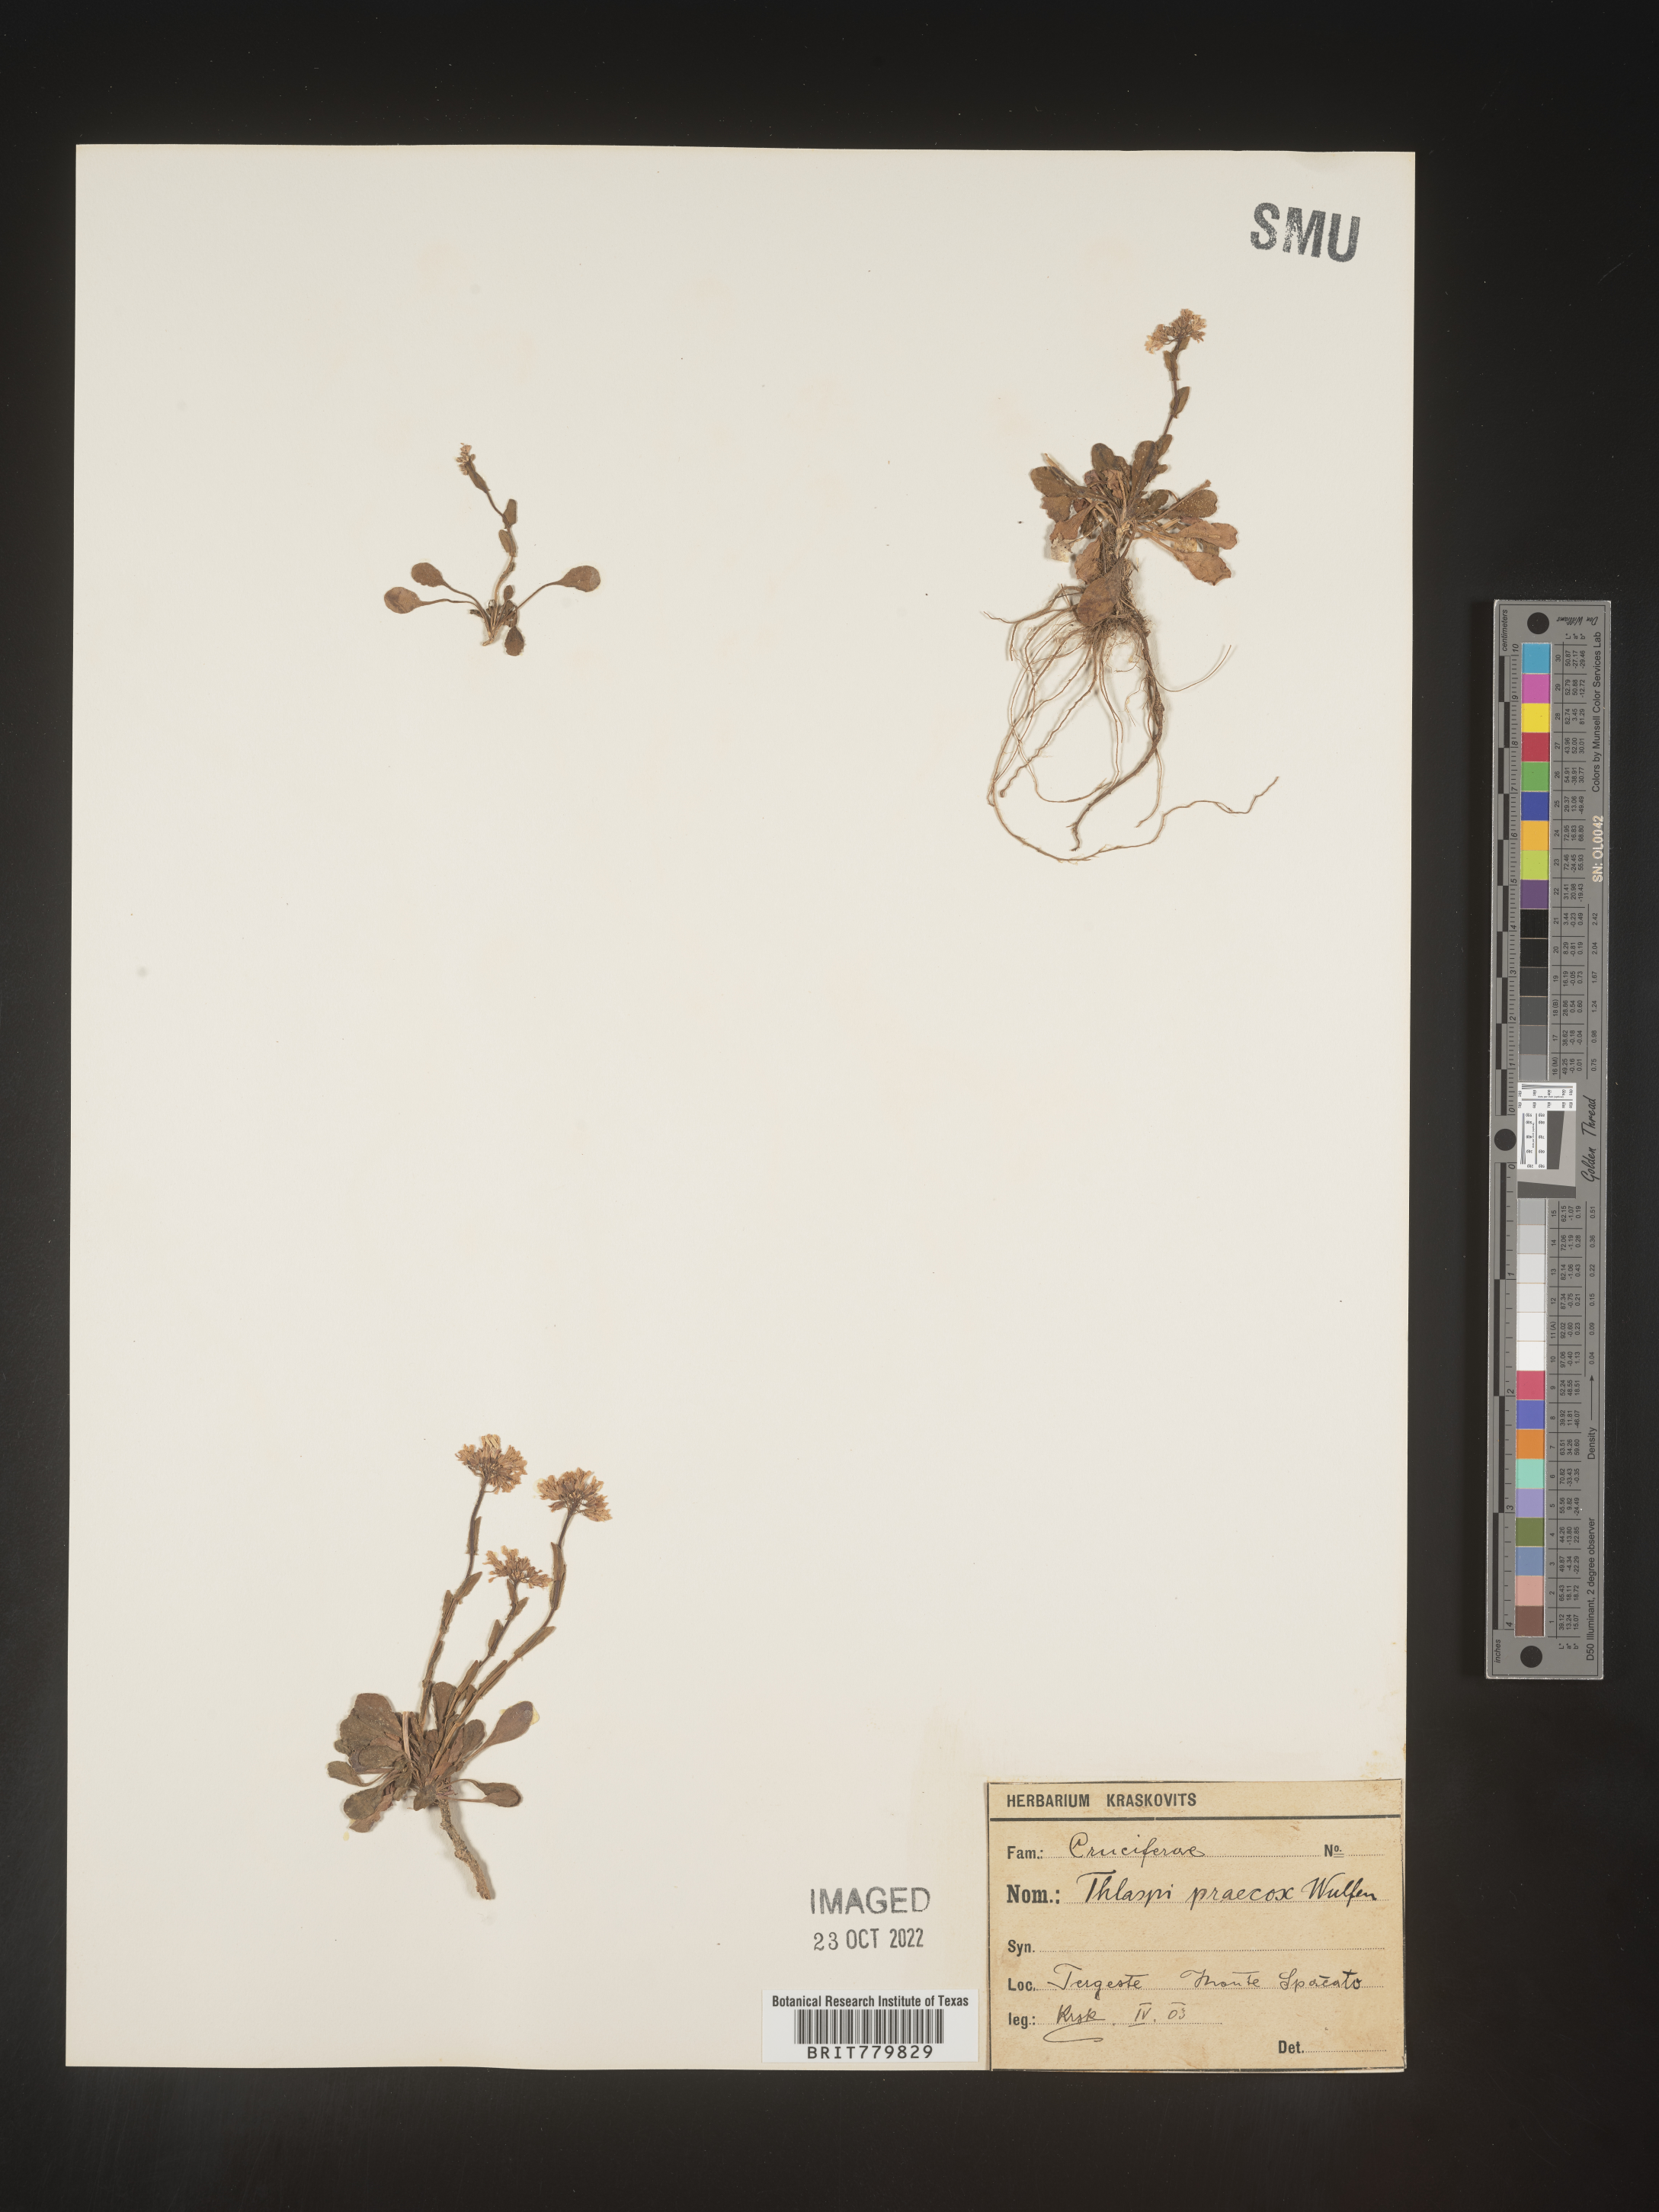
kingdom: Plantae
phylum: Tracheophyta
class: Magnoliopsida
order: Brassicales
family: Brassicaceae
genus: Thlaspi
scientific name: Thlaspi
